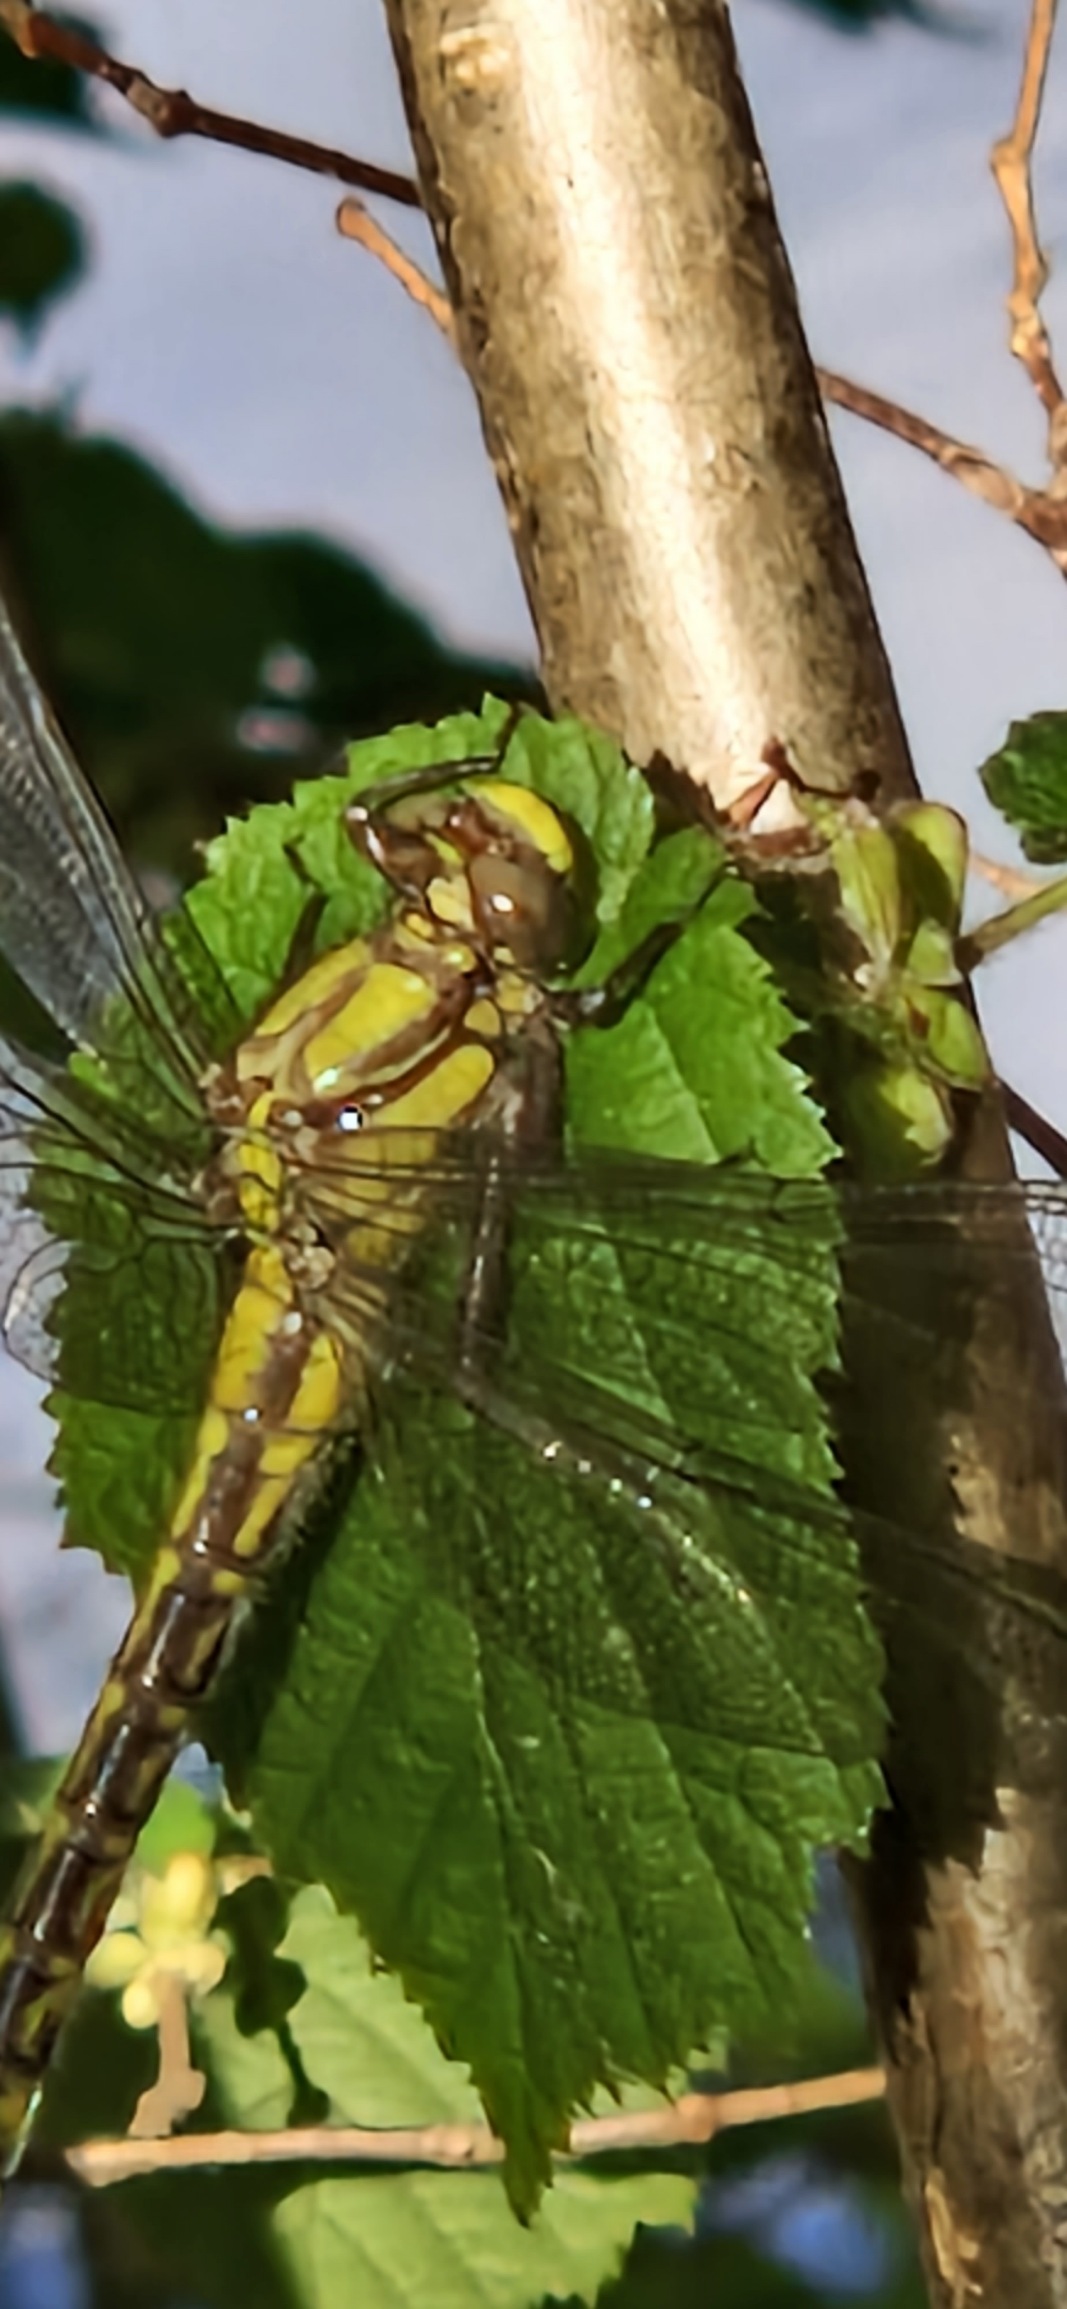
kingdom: Animalia
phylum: Arthropoda
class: Insecta
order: Odonata
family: Gomphidae
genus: Gomphus
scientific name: Gomphus vulgatissimus
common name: Almindelig flodguldsmed
